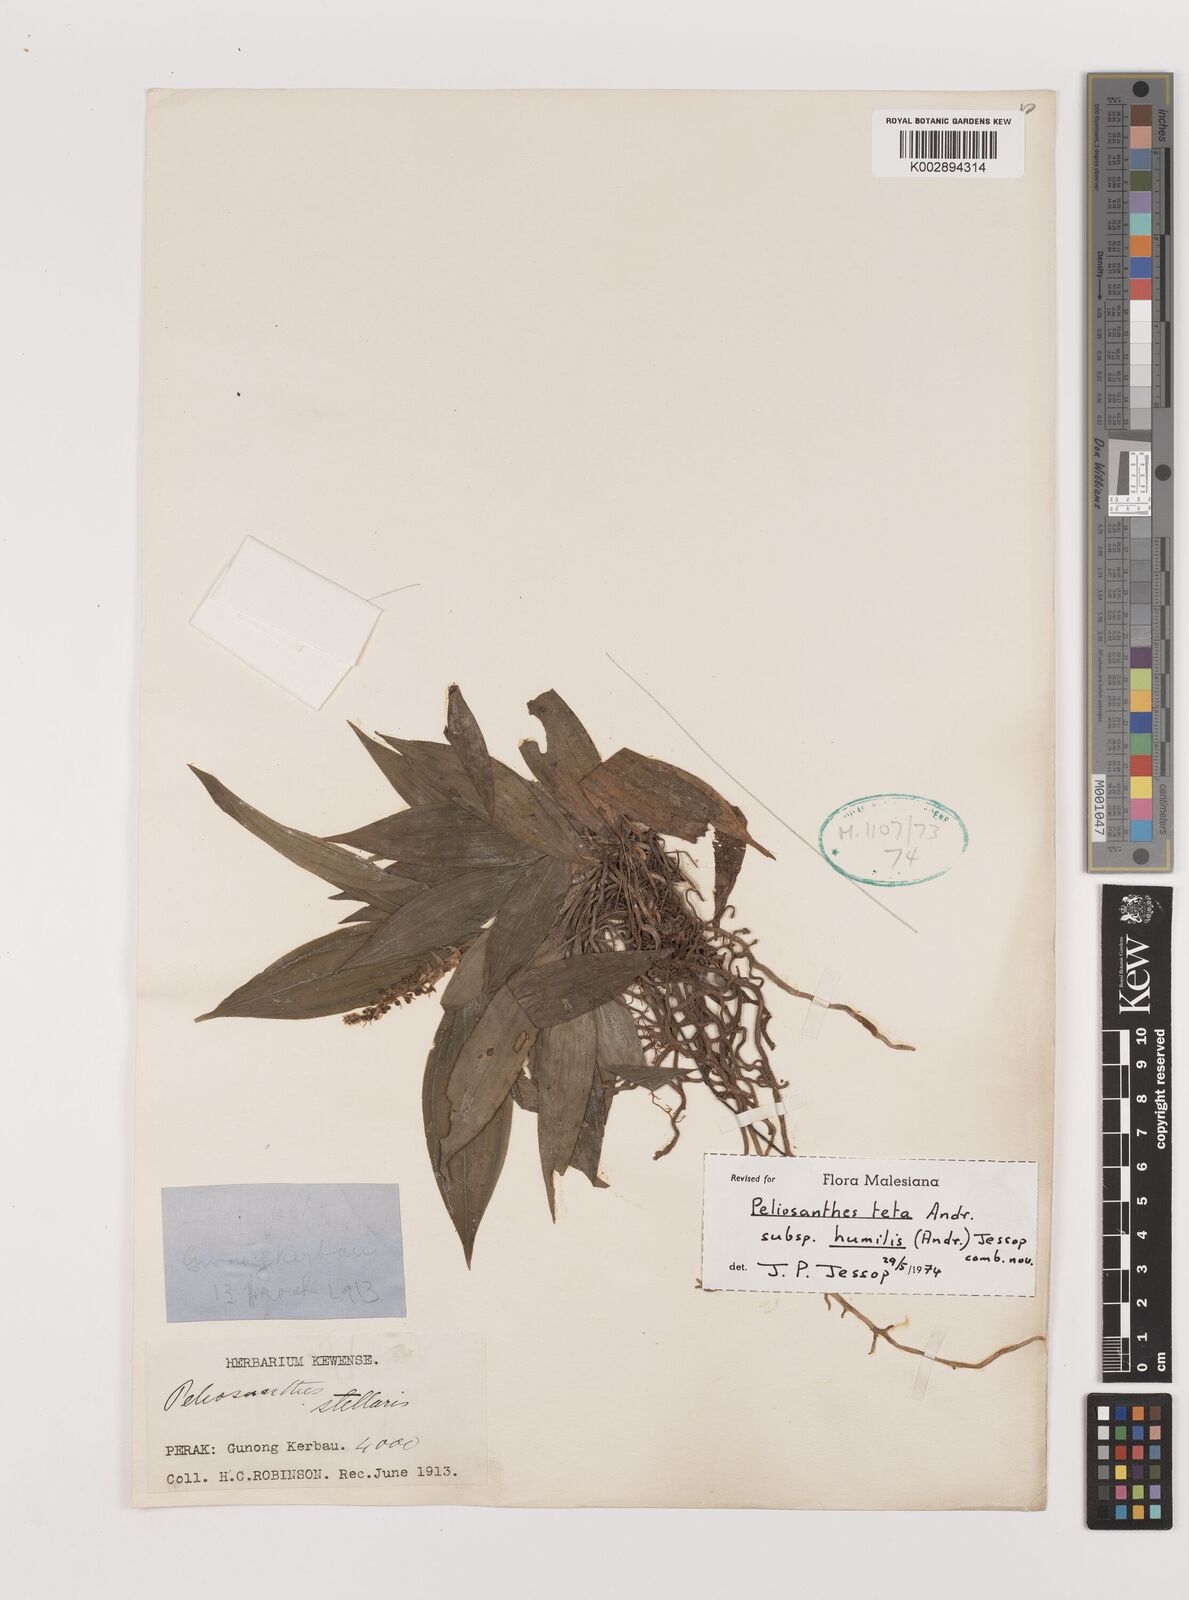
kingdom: Plantae
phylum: Tracheophyta
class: Liliopsida
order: Asparagales
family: Asparagaceae
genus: Peliosanthes
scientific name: Peliosanthes teta
